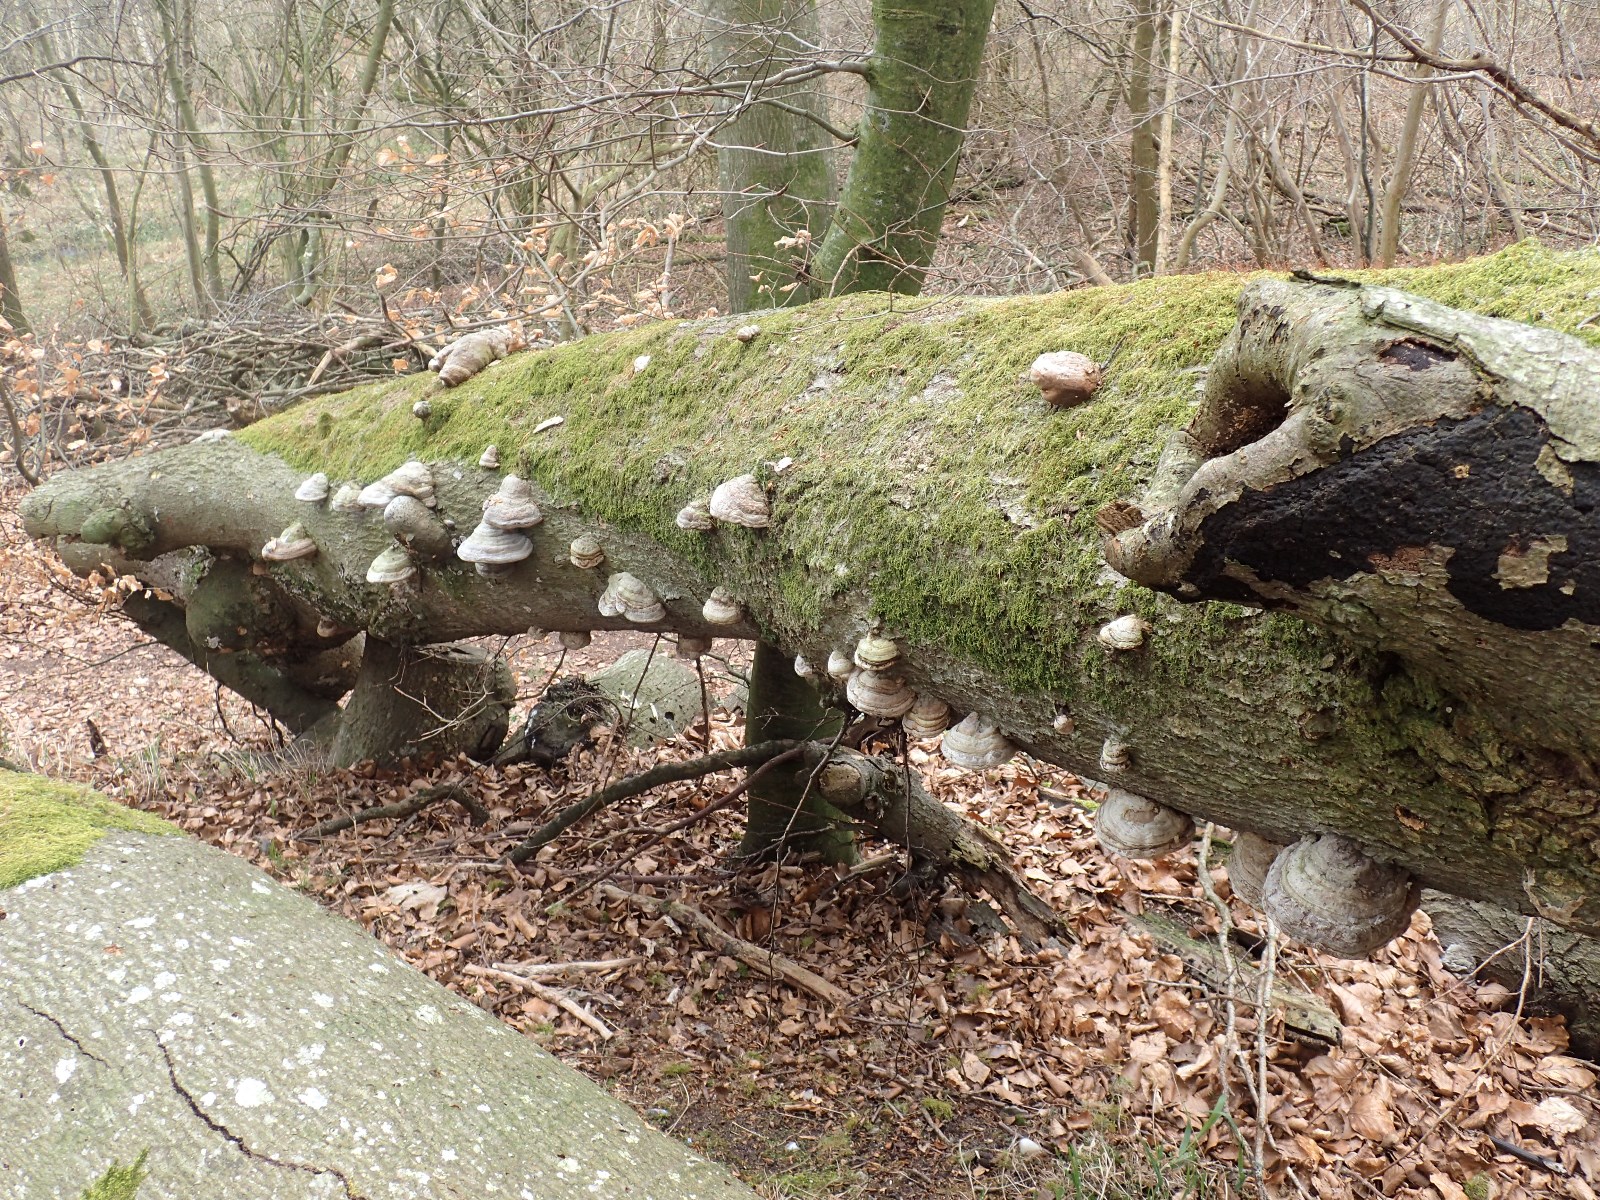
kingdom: Fungi
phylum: Basidiomycota
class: Agaricomycetes
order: Polyporales
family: Polyporaceae
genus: Fomes
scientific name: Fomes fomentarius
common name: tøndersvamp
